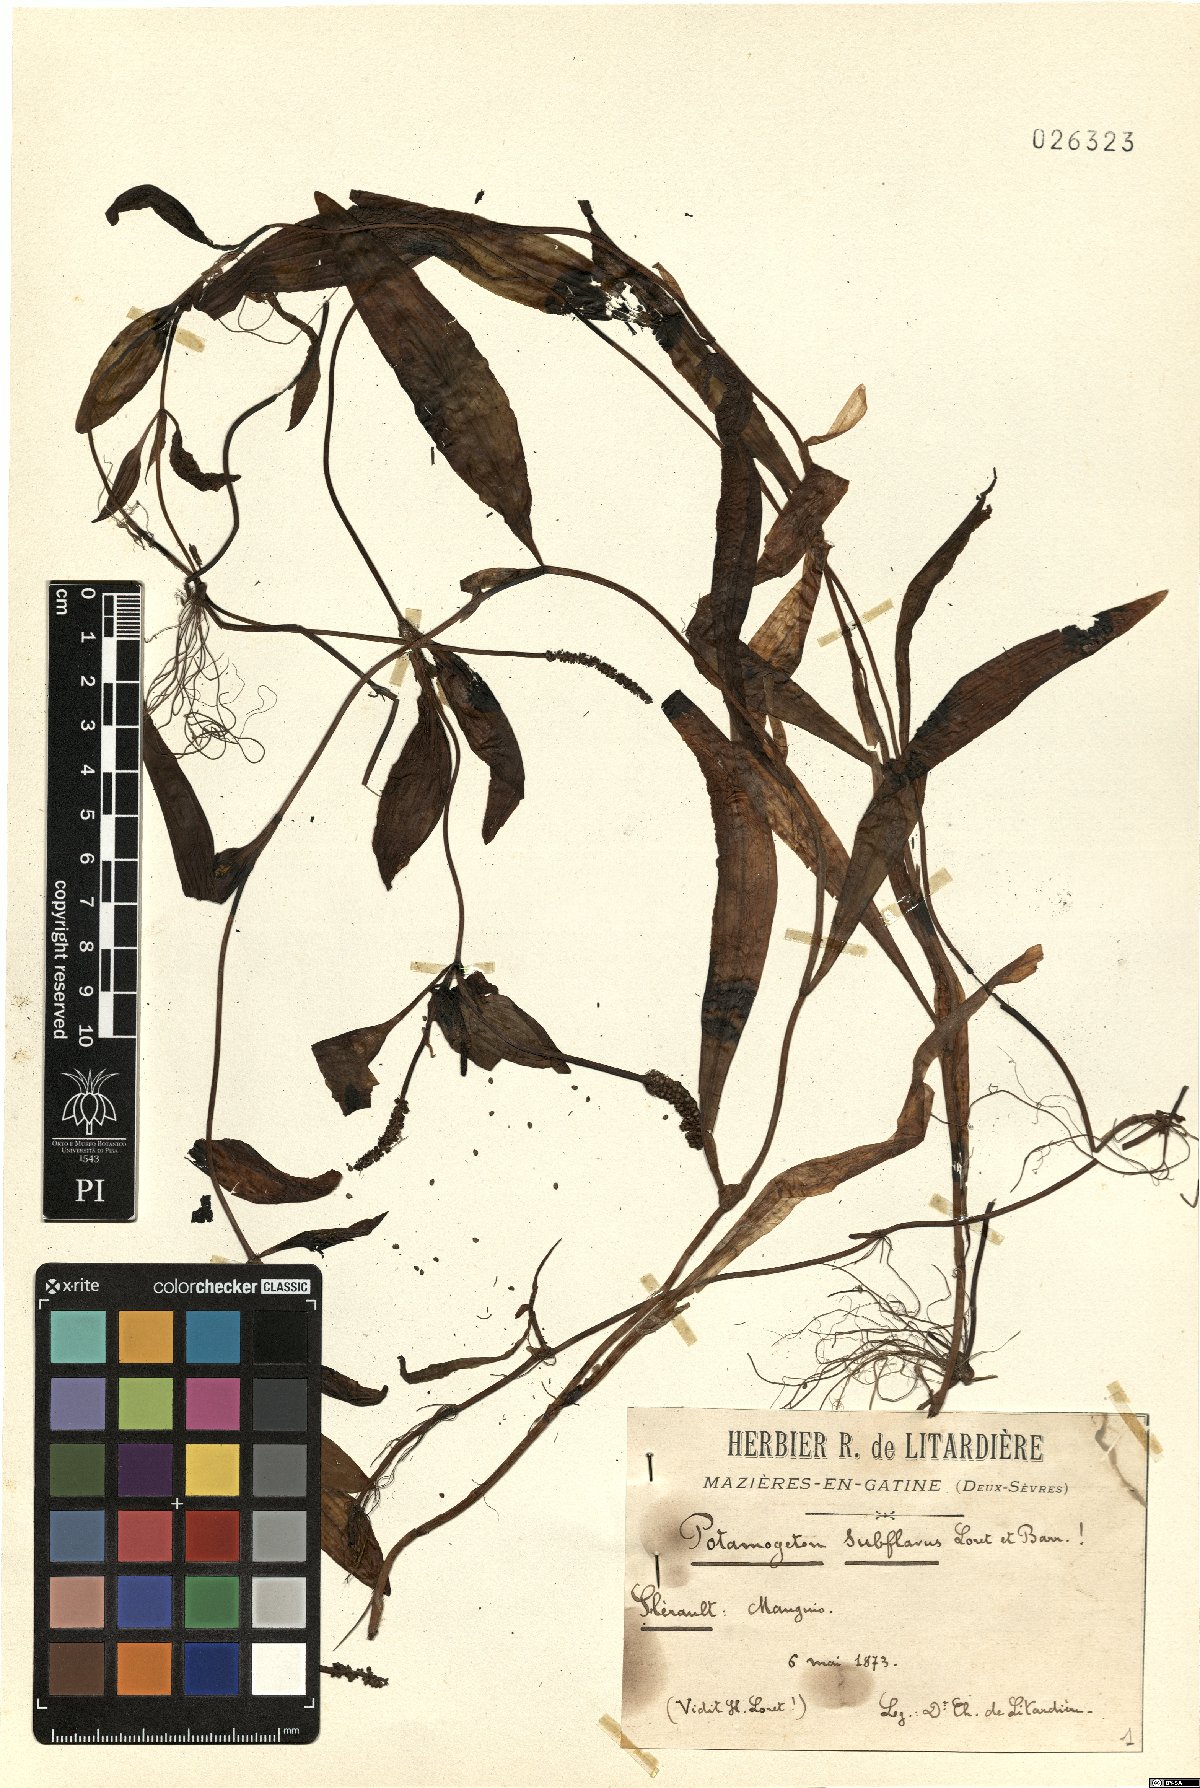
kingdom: Plantae
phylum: Tracheophyta
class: Liliopsida
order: Alismatales
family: Potamogetonaceae
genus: Potamogeton
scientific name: Potamogeton coloratus
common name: Fen pondweed
